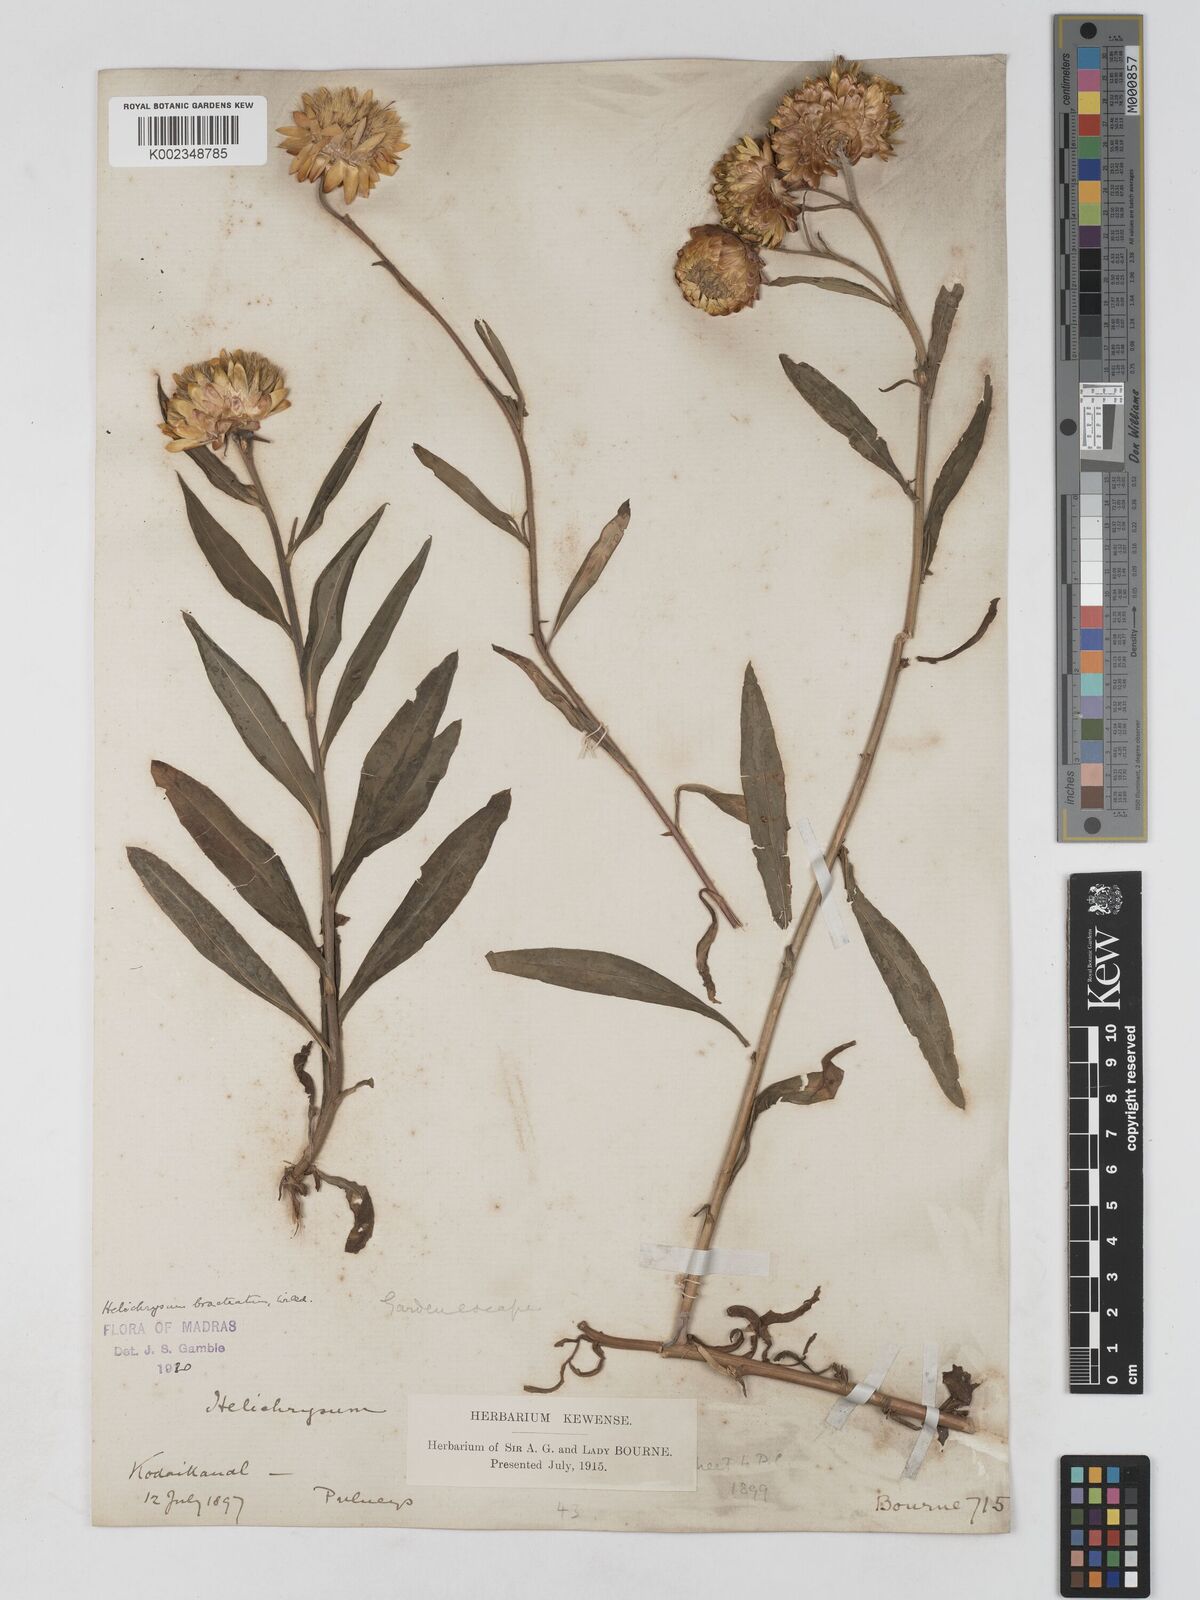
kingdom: Plantae
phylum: Tracheophyta
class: Magnoliopsida
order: Asterales
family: Asteraceae
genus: Xerochrysum
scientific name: Xerochrysum bracteatum
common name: Bracted strawflower
